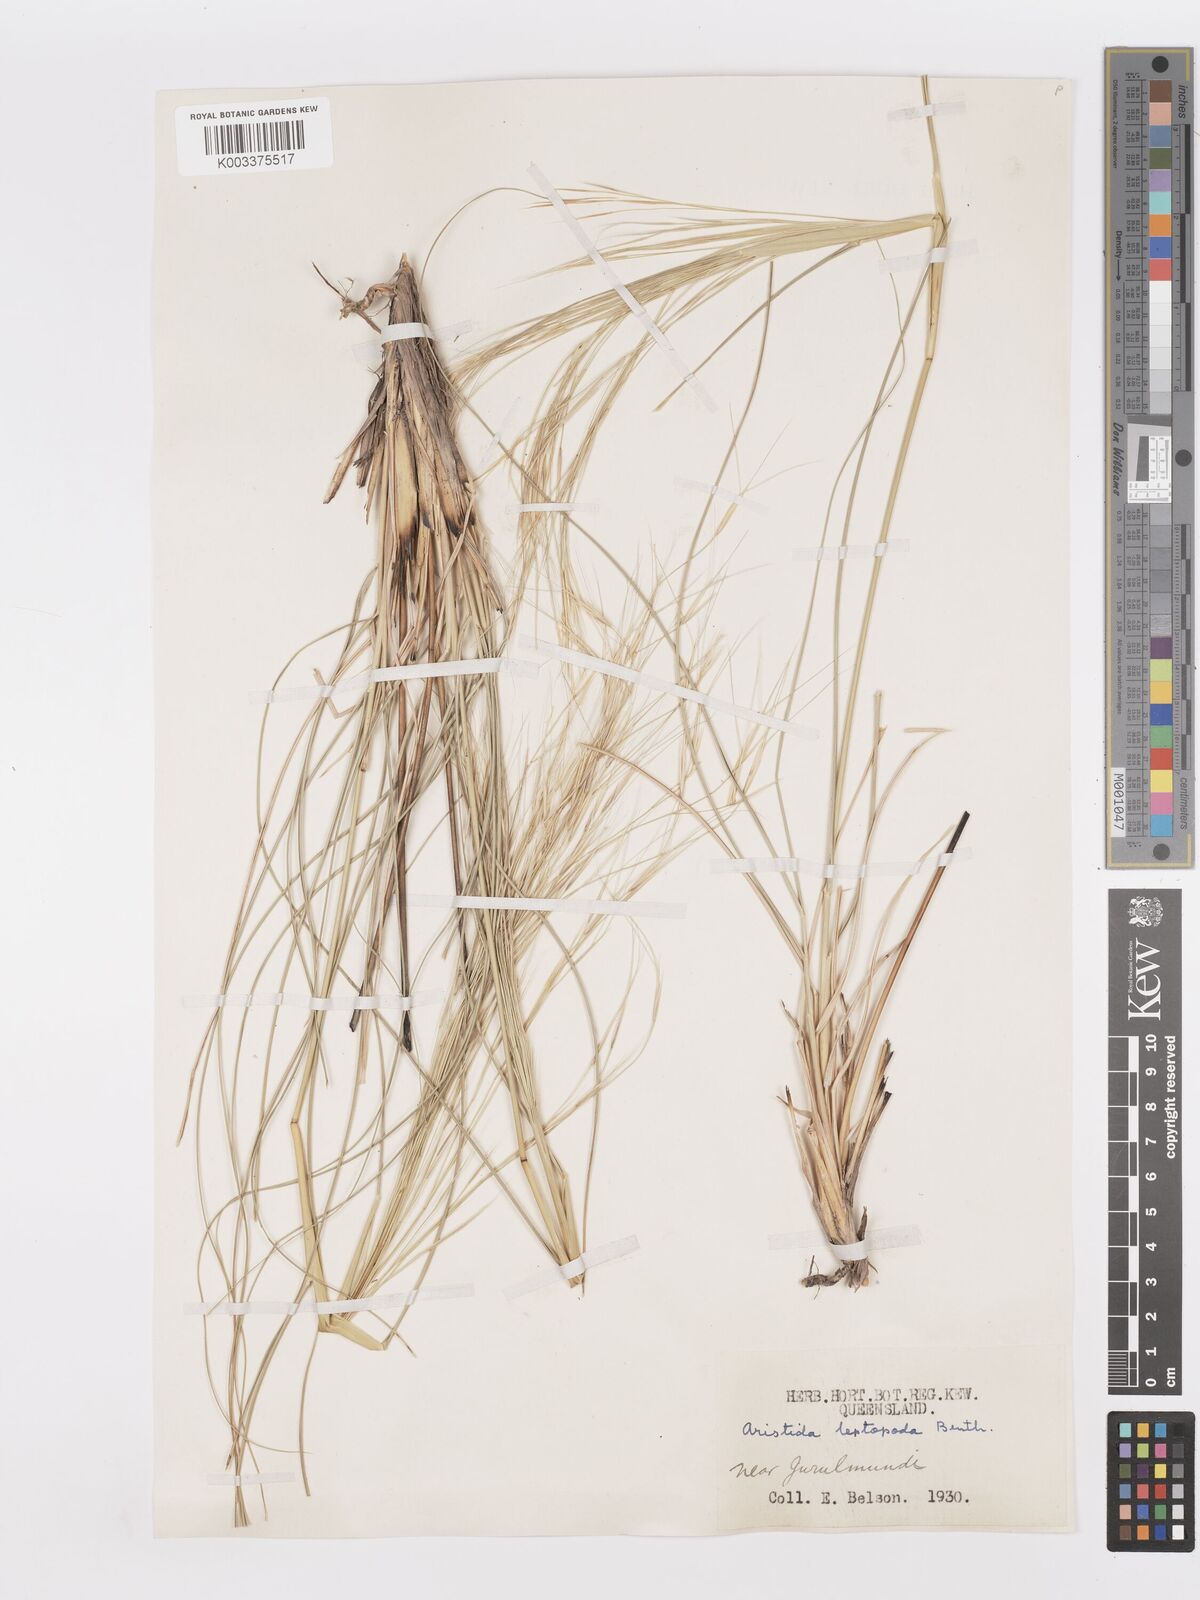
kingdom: Plantae
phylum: Tracheophyta
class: Liliopsida
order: Poales
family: Poaceae
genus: Aristida
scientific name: Aristida leptopoda
